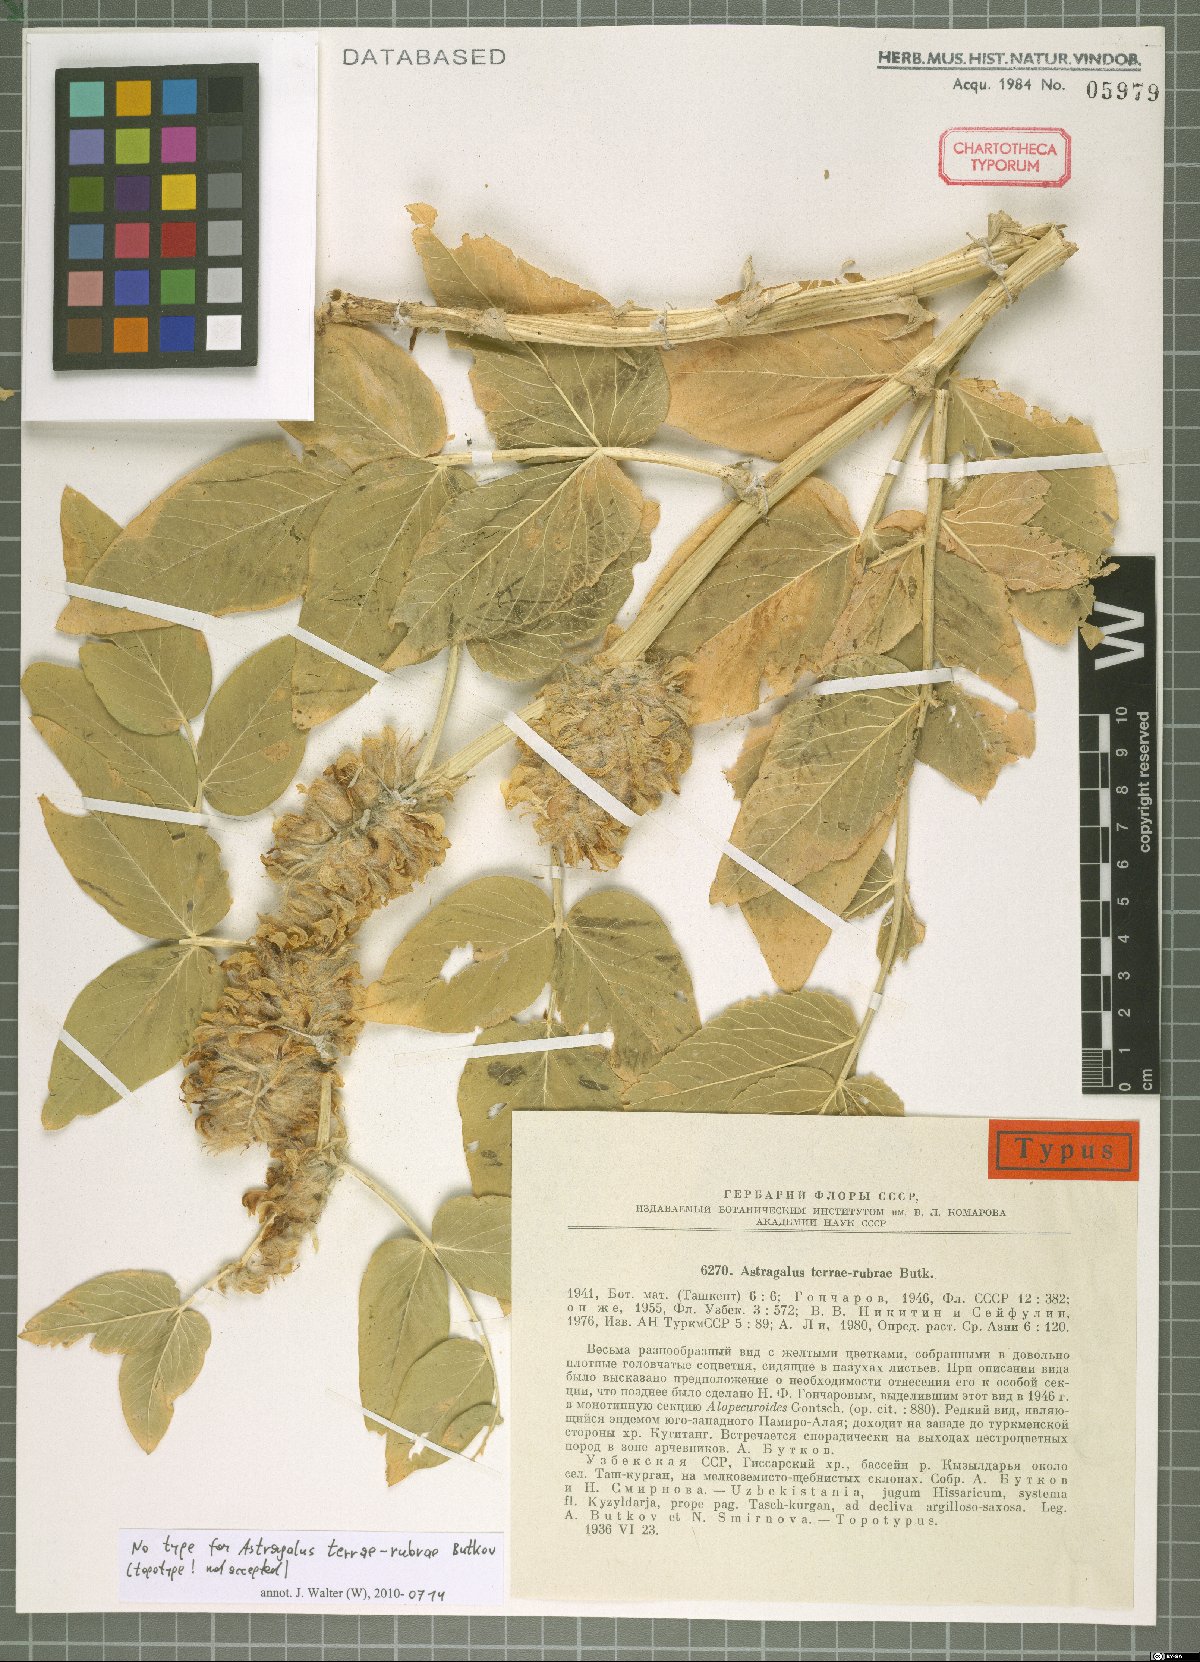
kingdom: Plantae
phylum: Tracheophyta
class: Magnoliopsida
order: Fabales
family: Fabaceae
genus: Astragalus
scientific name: Astragalus terrae-rubrae
